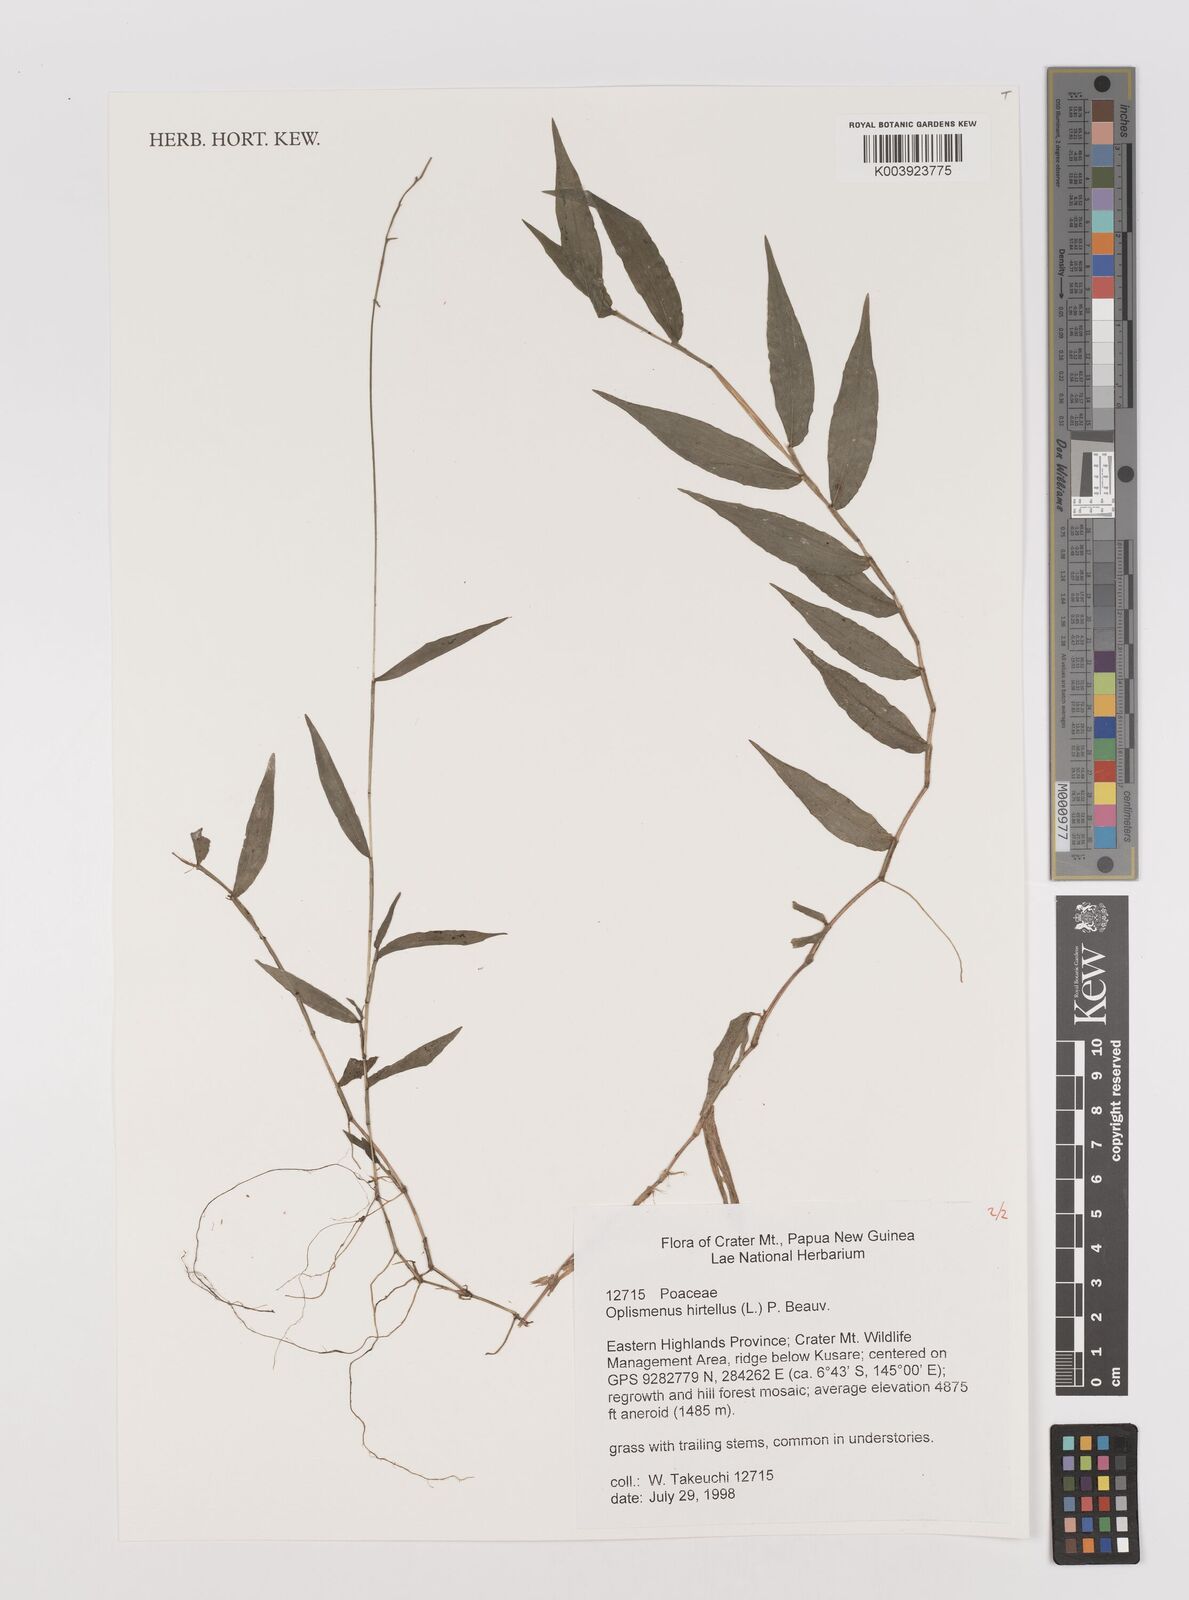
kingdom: Plantae
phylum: Tracheophyta
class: Liliopsida
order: Poales
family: Poaceae
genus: Oplismenus
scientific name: Oplismenus hirtellus
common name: Basketgrass
